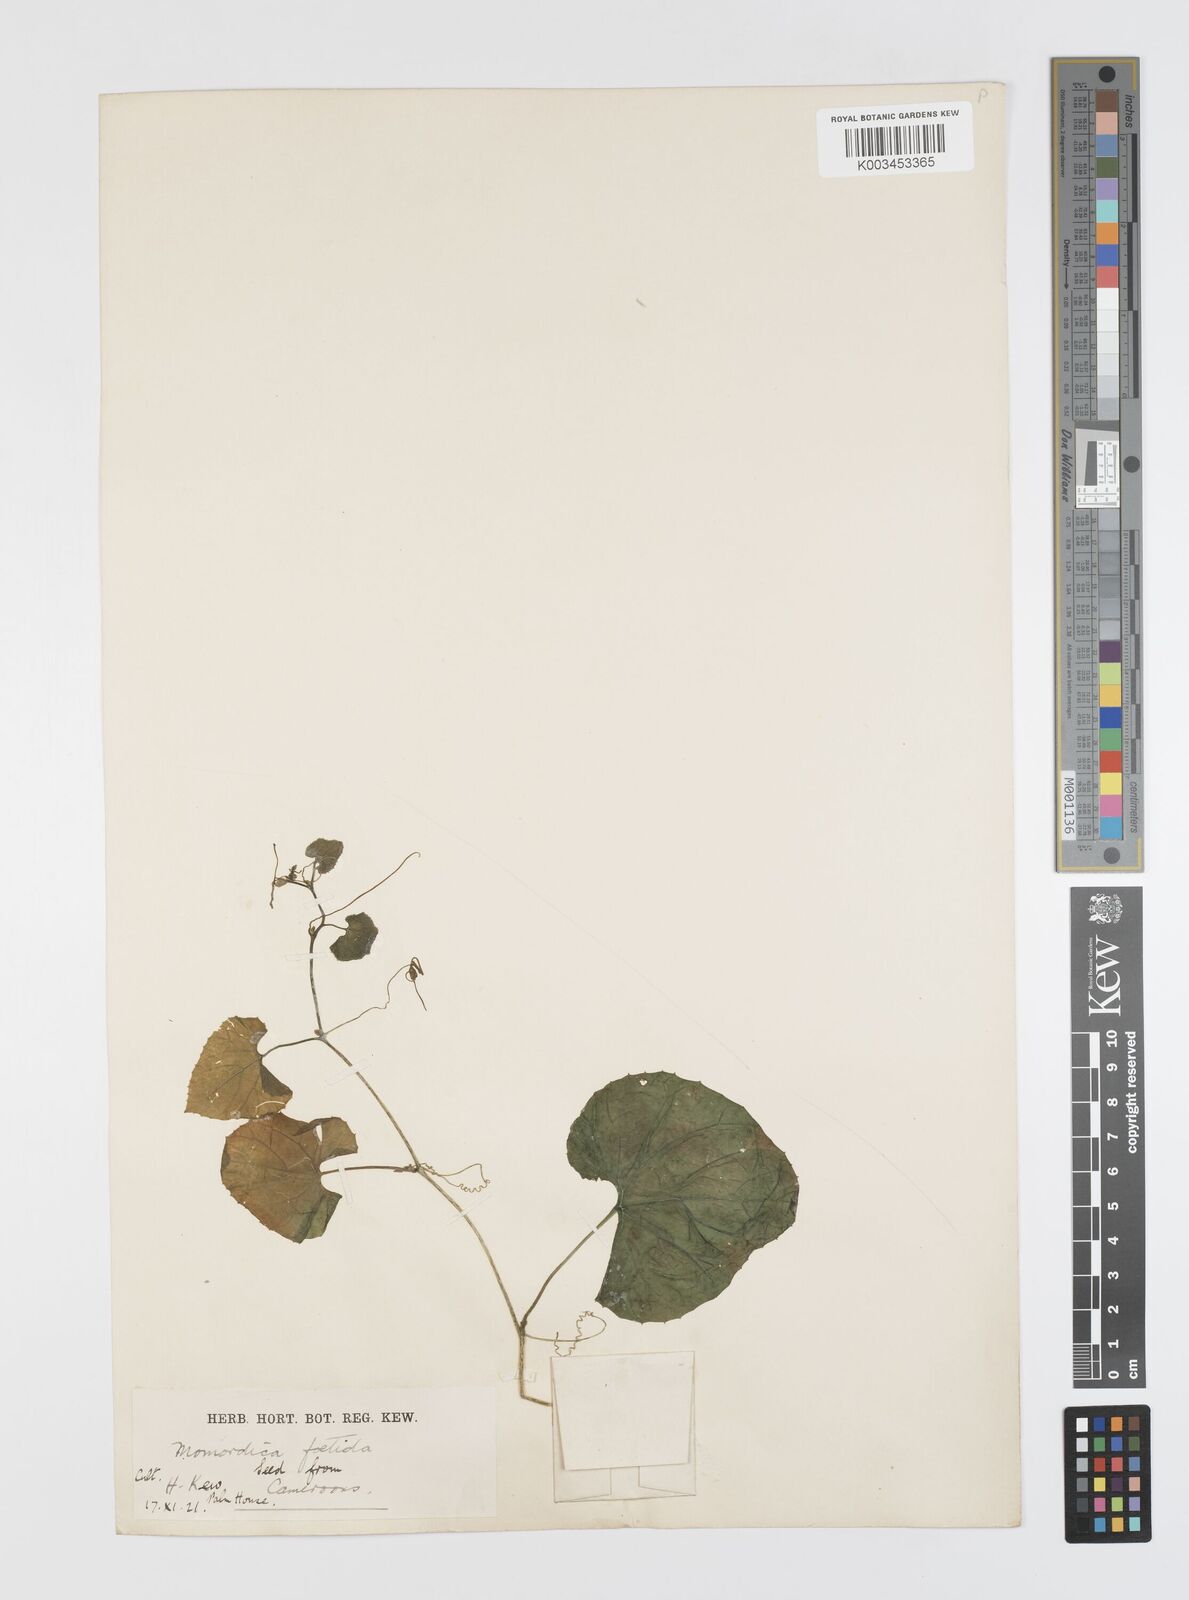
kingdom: Plantae
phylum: Tracheophyta
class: Magnoliopsida
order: Cucurbitales
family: Cucurbitaceae
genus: Momordica
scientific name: Momordica foetida
